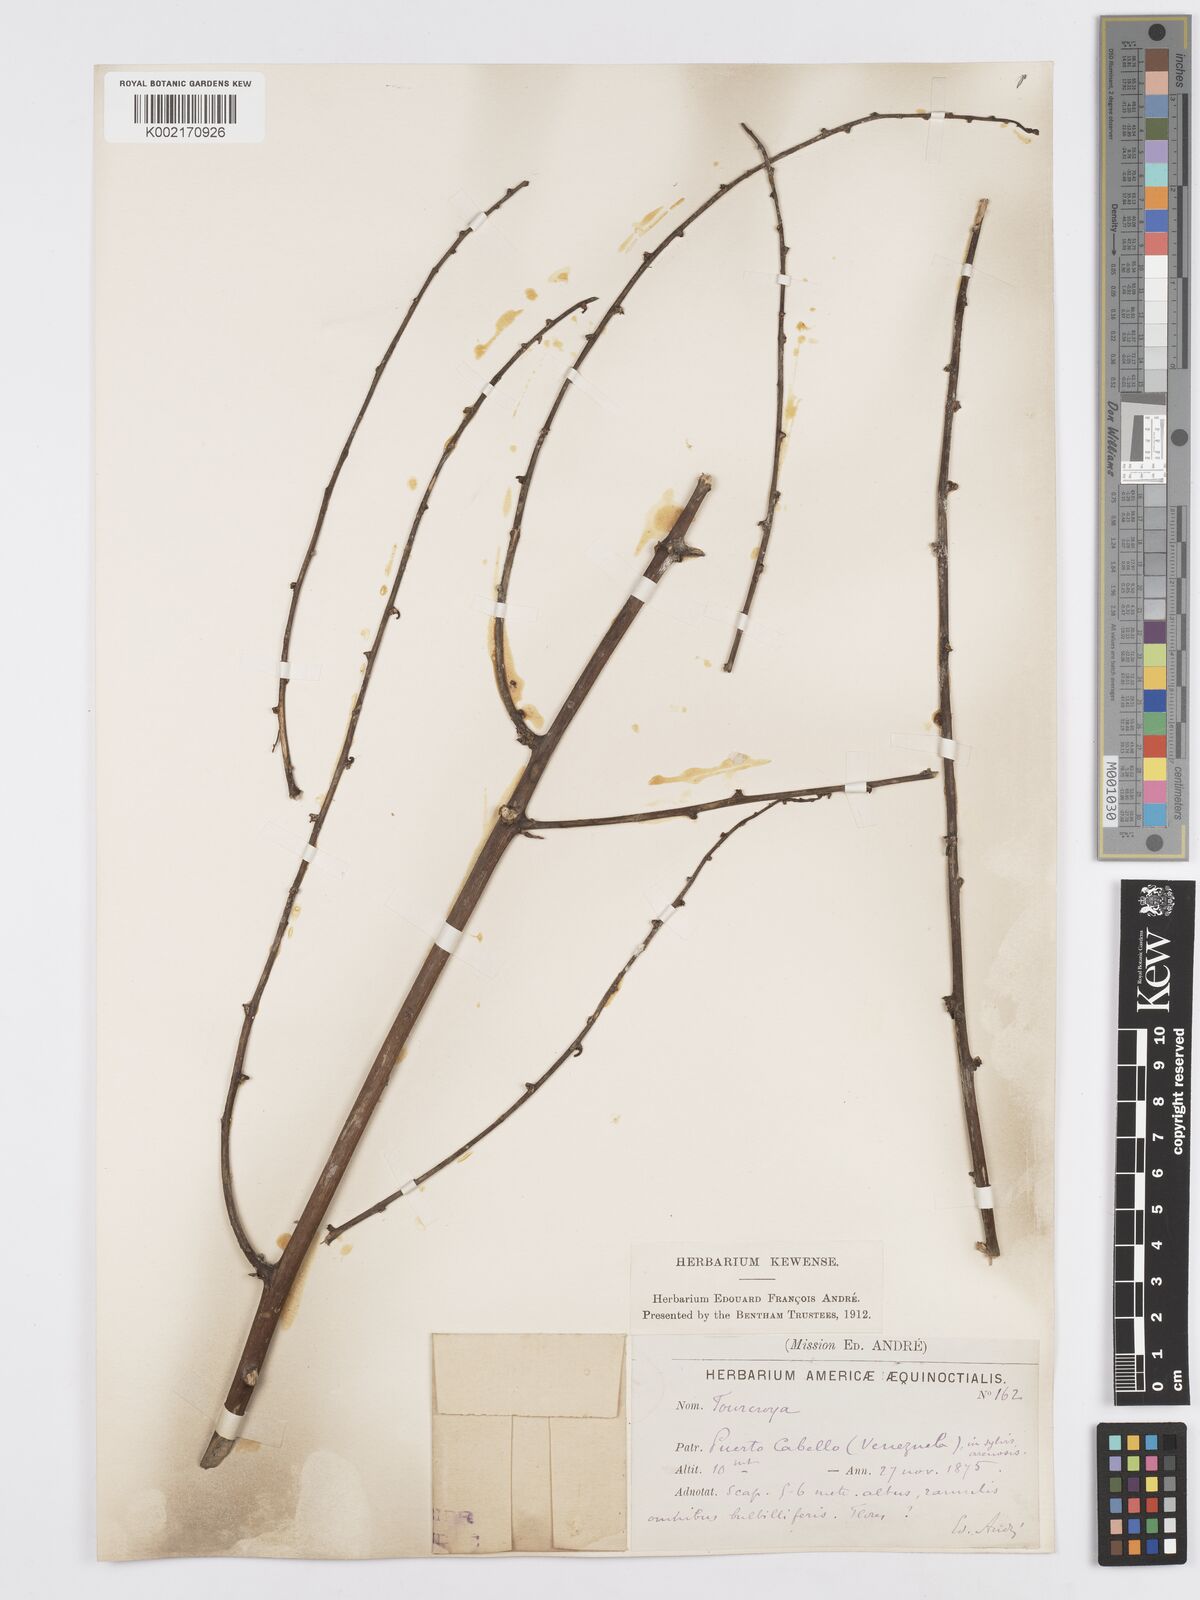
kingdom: Plantae
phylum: Tracheophyta
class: Liliopsida
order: Asparagales
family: Asparagaceae
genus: Furcraea
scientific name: Furcraea
